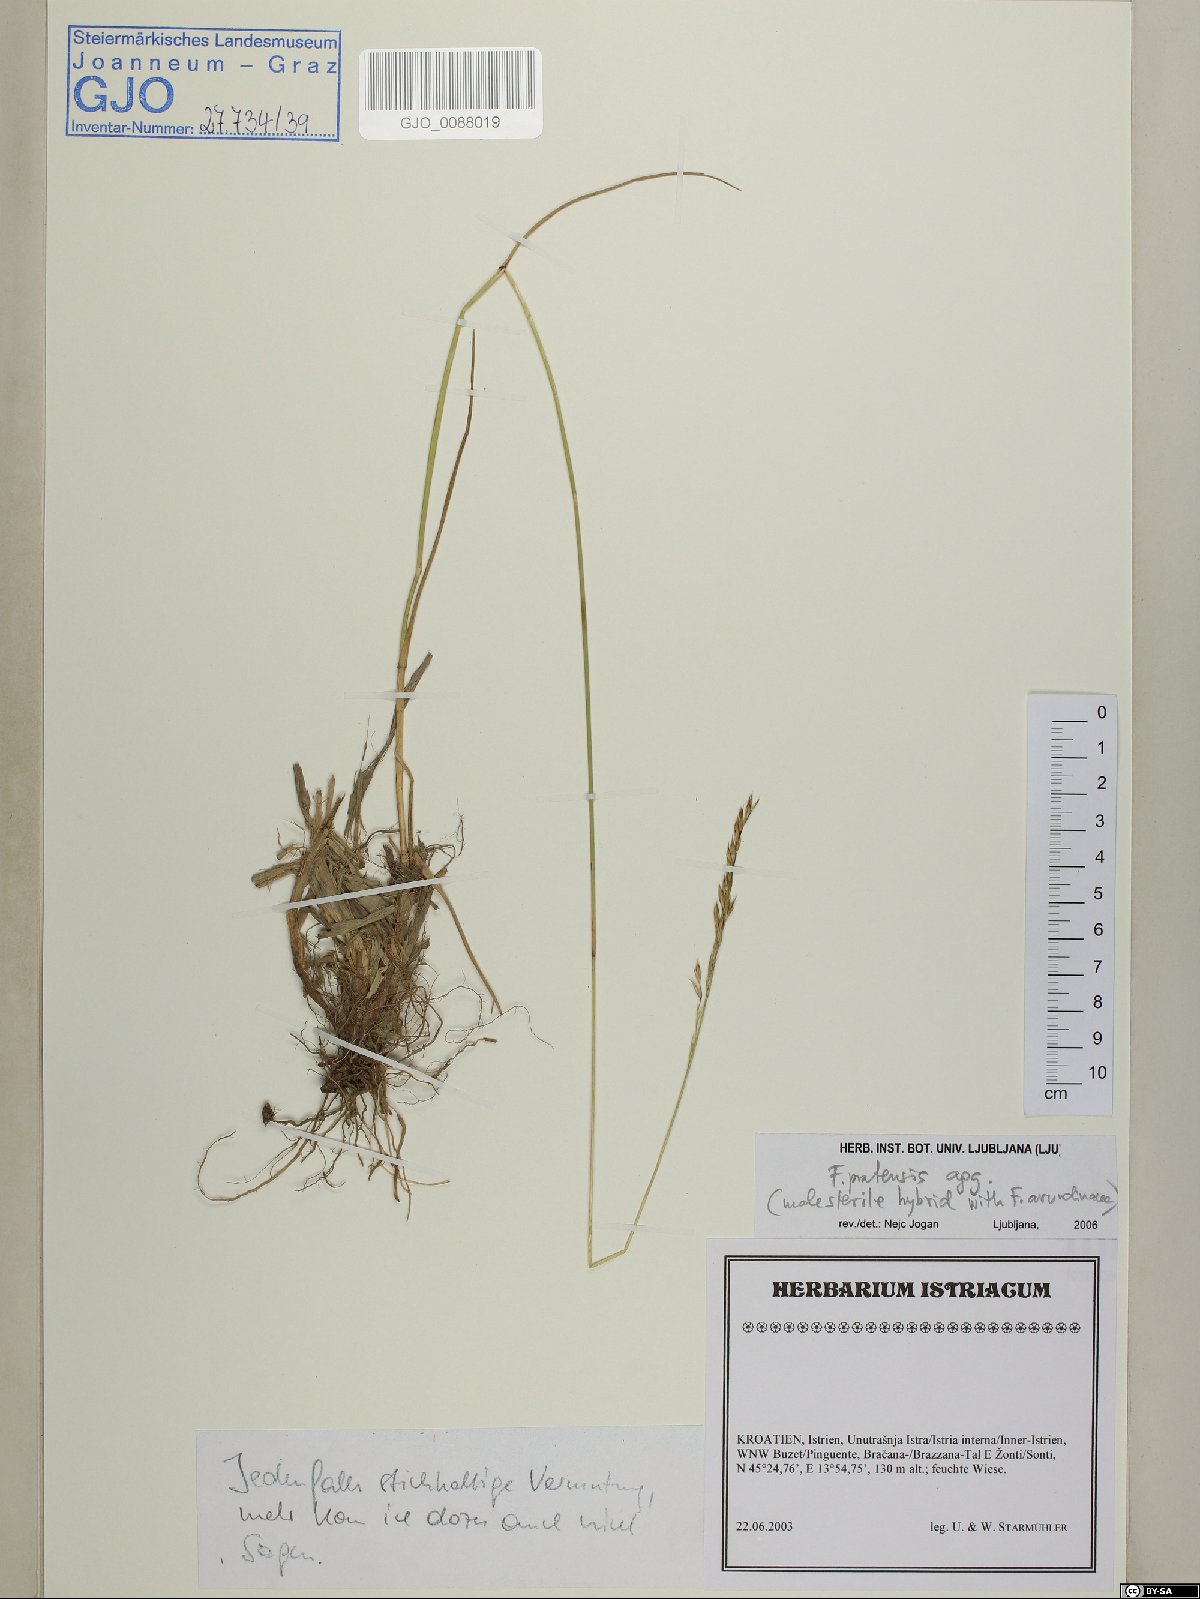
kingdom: Plantae
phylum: Tracheophyta
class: Liliopsida
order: Poales
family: Poaceae
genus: Lolium
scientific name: Lolium pratense
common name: Dover grass
